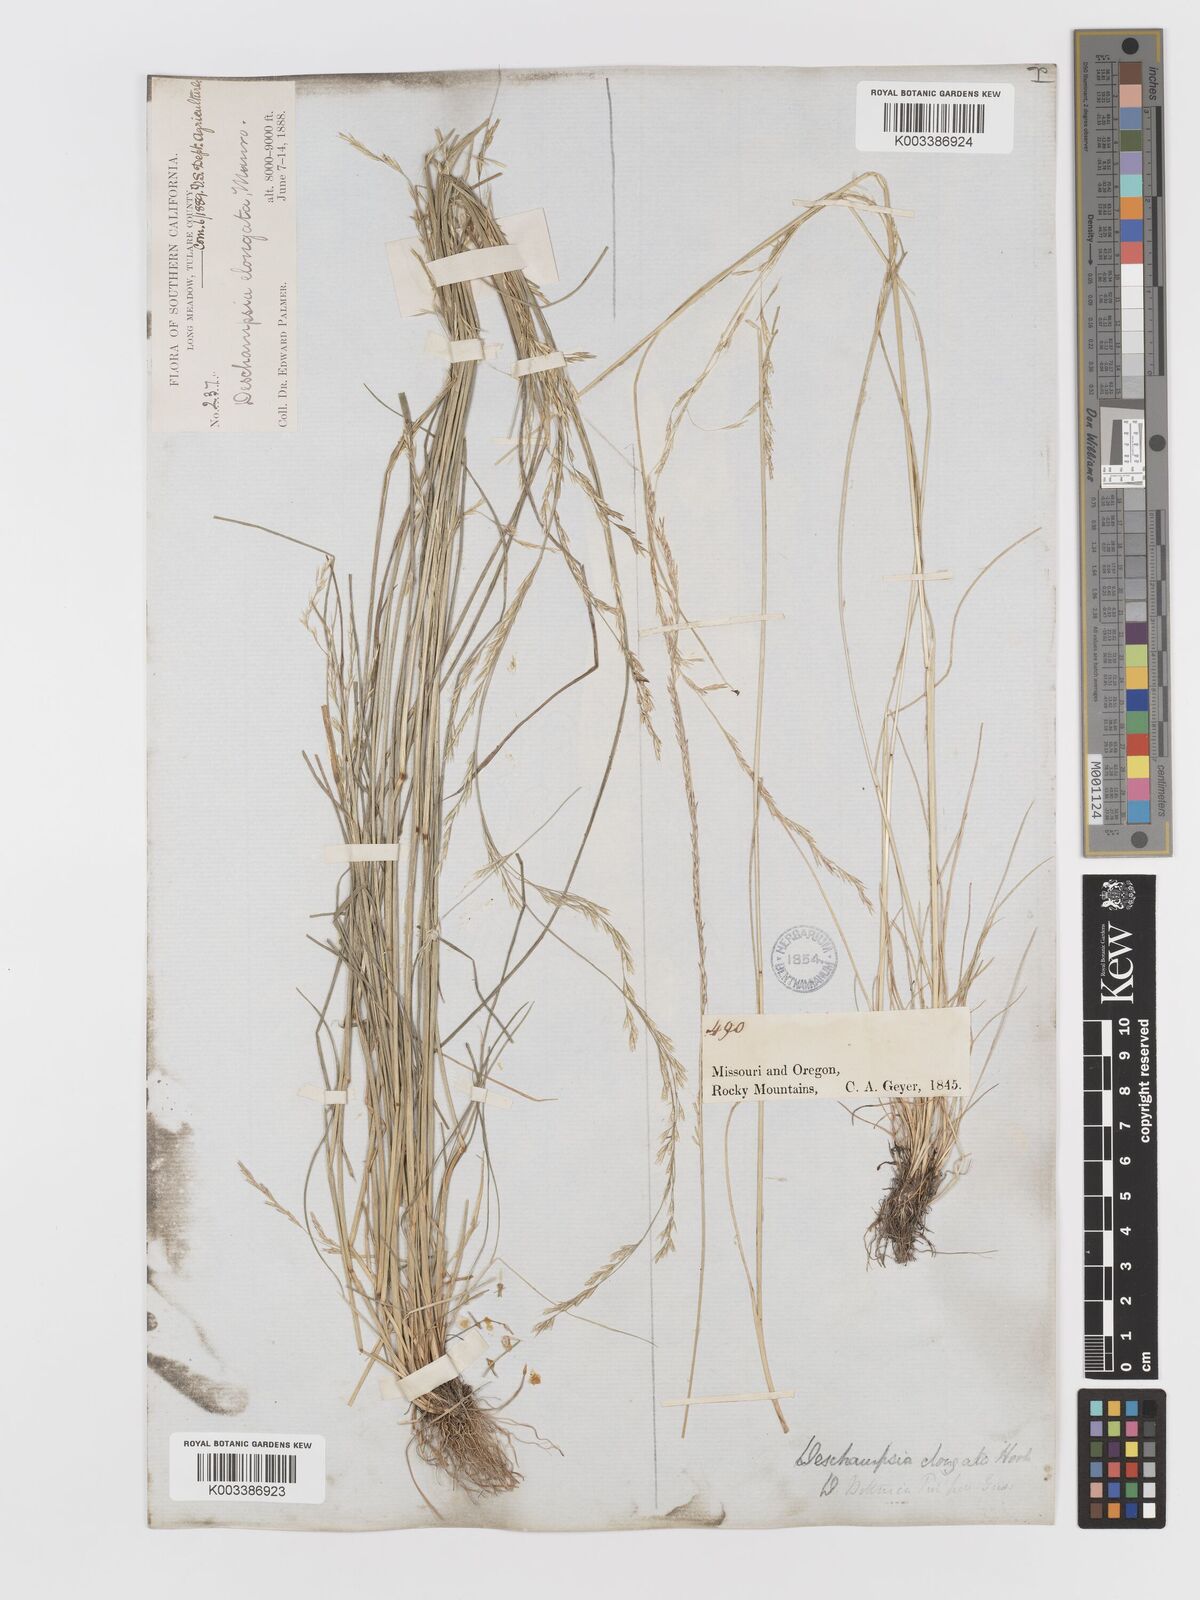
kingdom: Plantae
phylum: Tracheophyta
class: Liliopsida
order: Poales
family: Poaceae
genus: Deschampsia
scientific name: Deschampsia elongata
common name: Slender hairgrass
